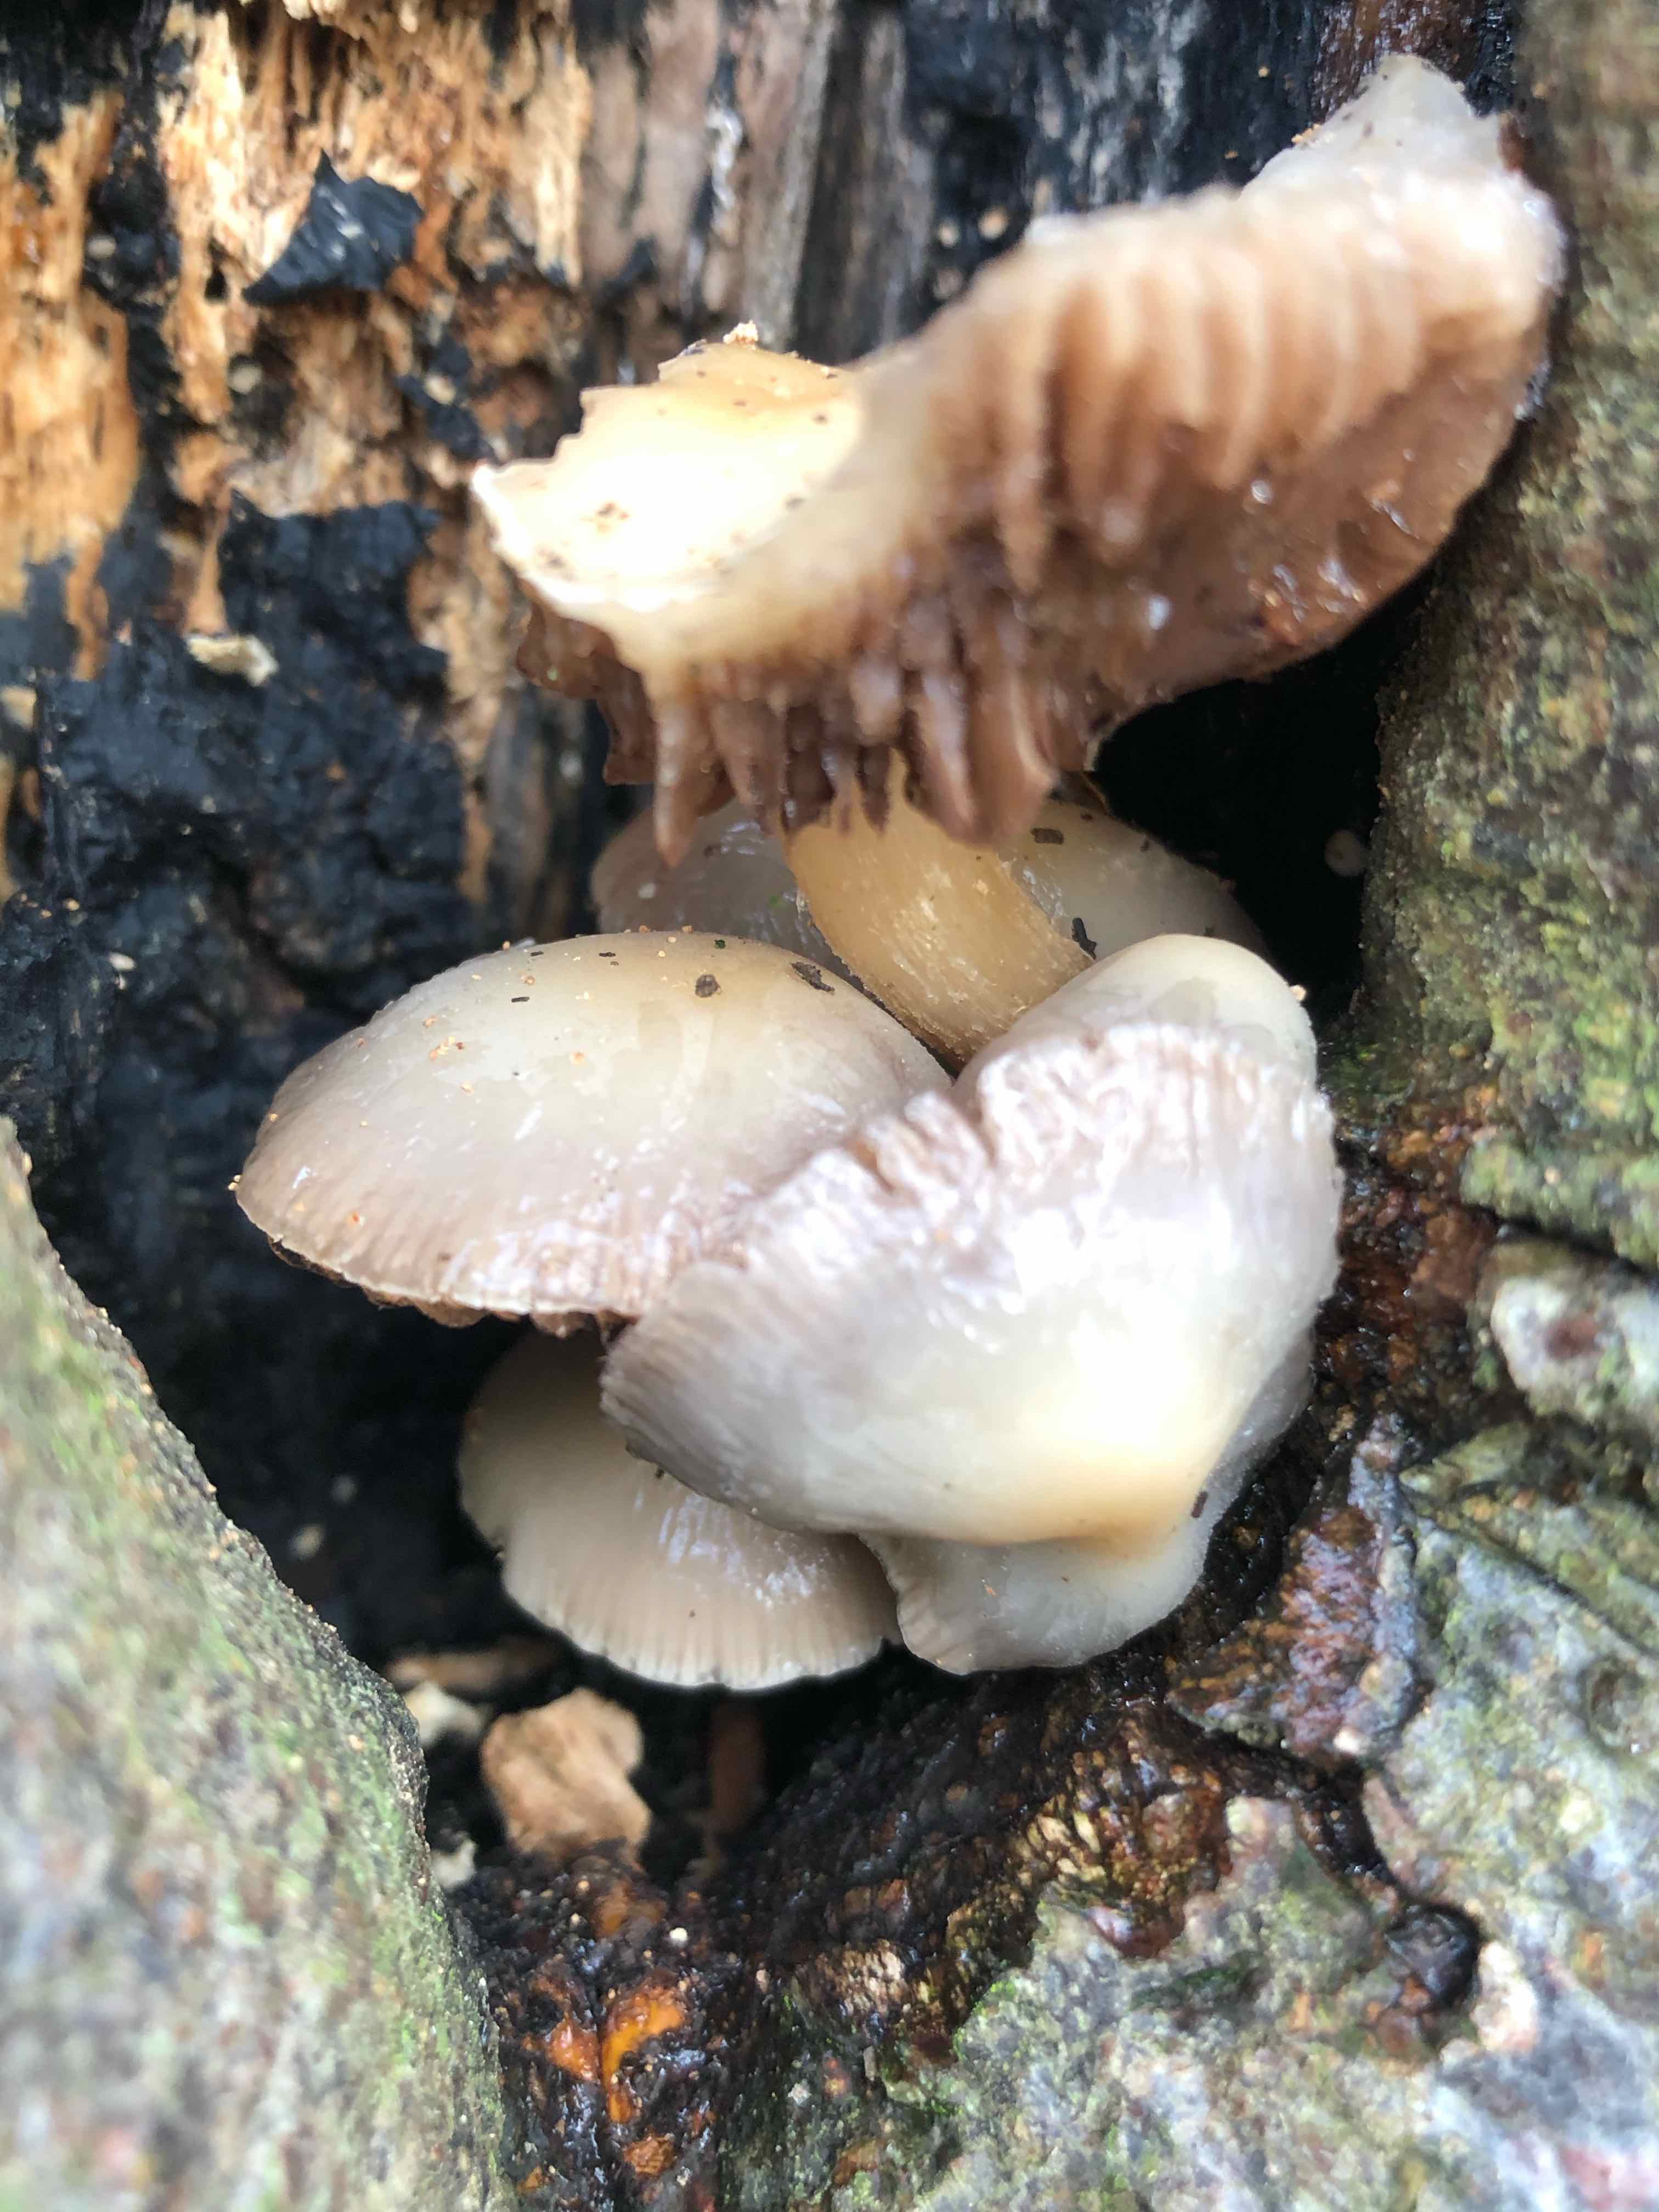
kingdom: Fungi
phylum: Basidiomycota
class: Agaricomycetes
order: Agaricales
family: Psathyrellaceae
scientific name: Psathyrellaceae
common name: mørkhatfamilien
